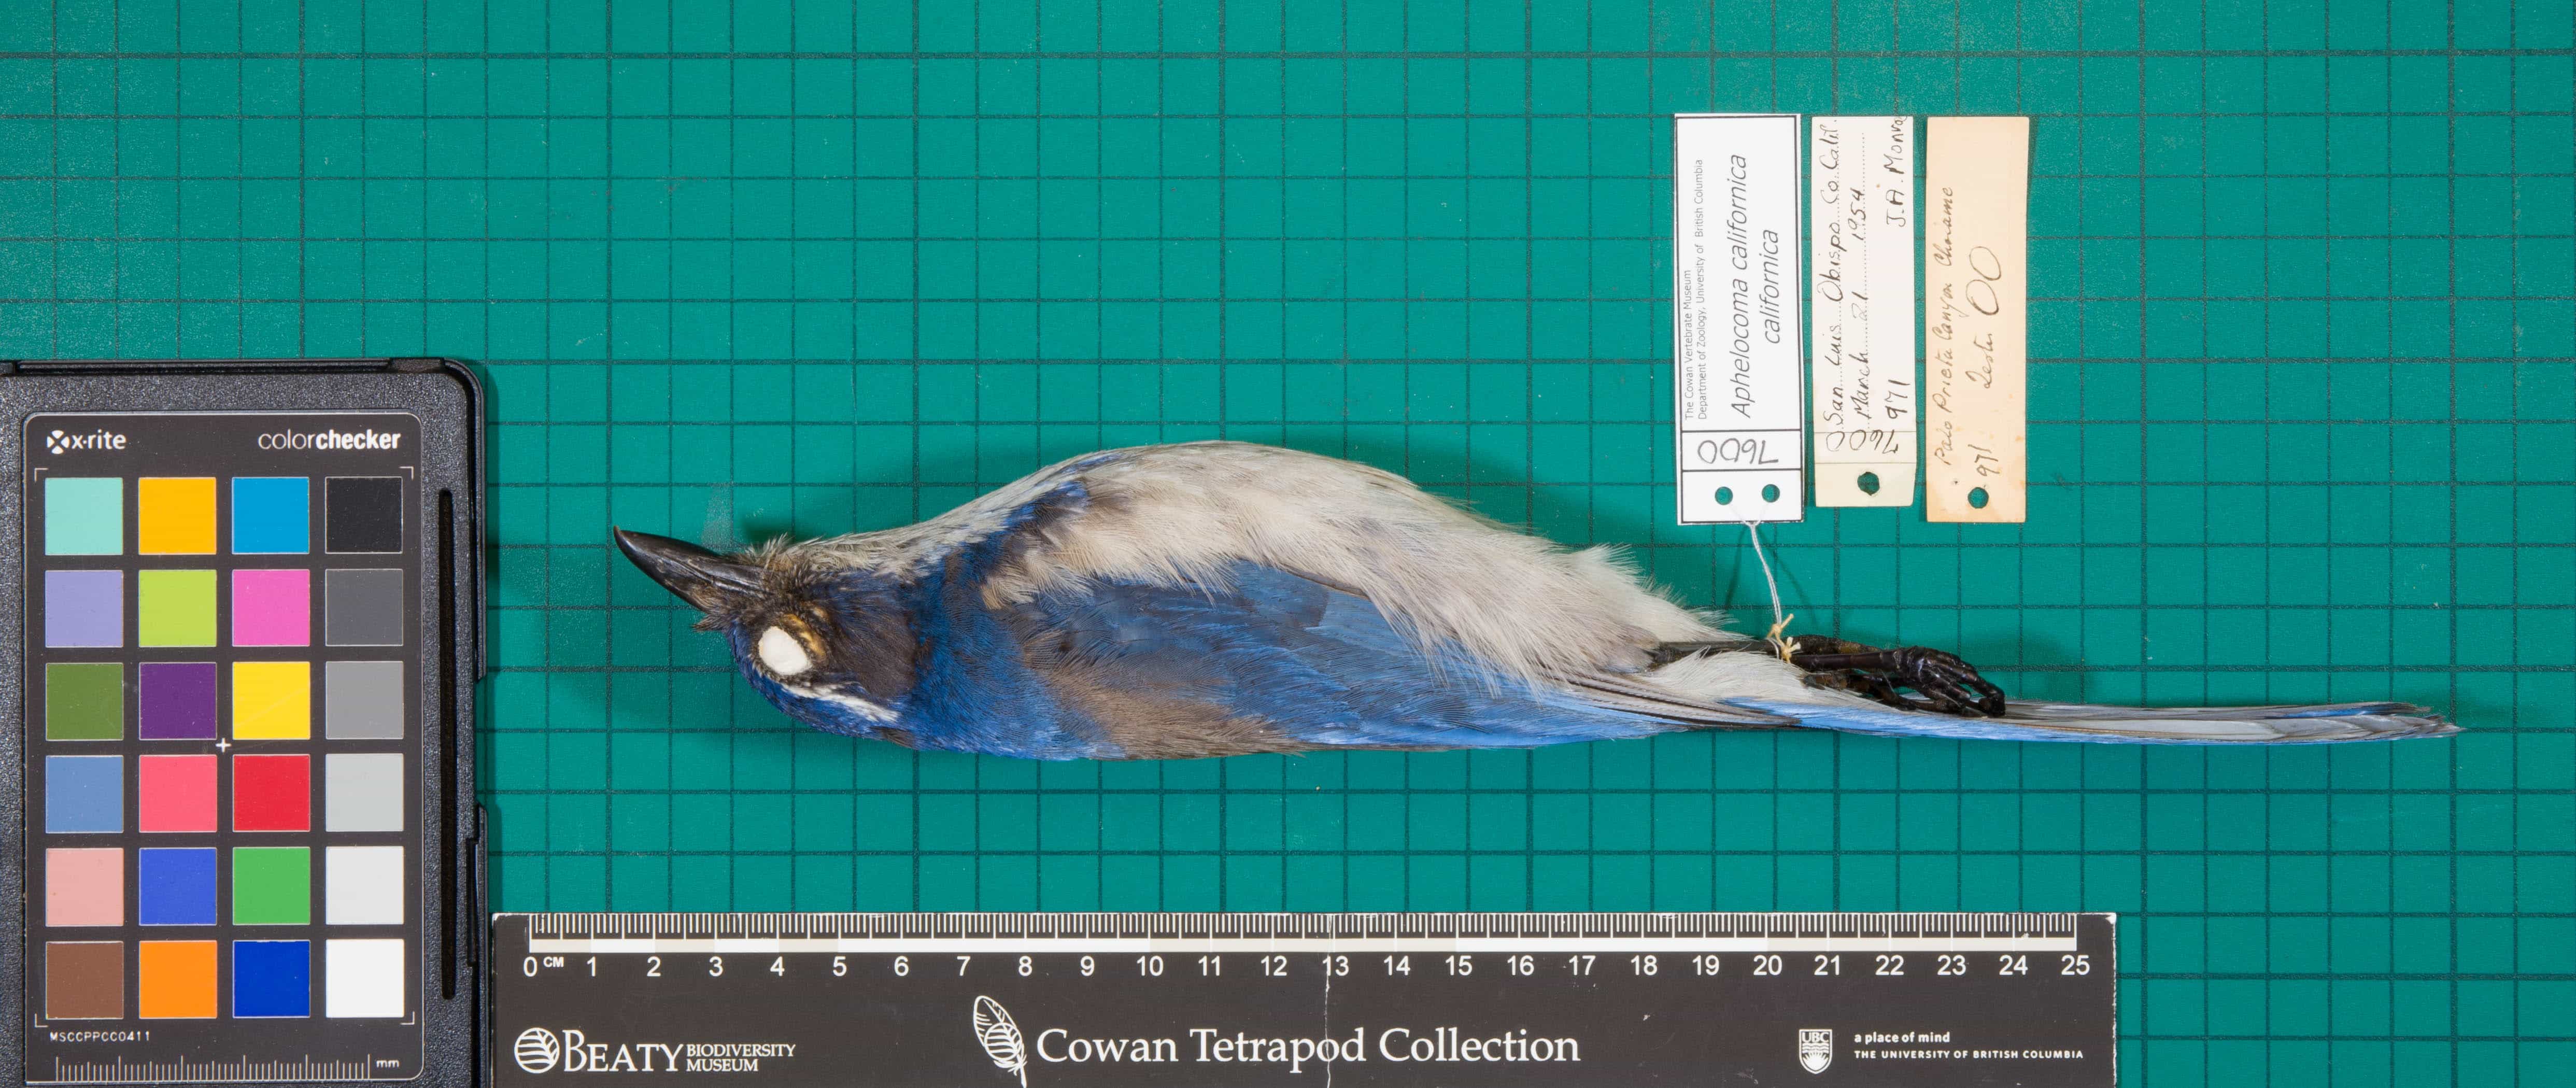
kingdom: Animalia
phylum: Chordata
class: Aves
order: Passeriformes
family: Corvidae
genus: Aphelocoma
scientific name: Aphelocoma californica
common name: California Scrub-Jay
